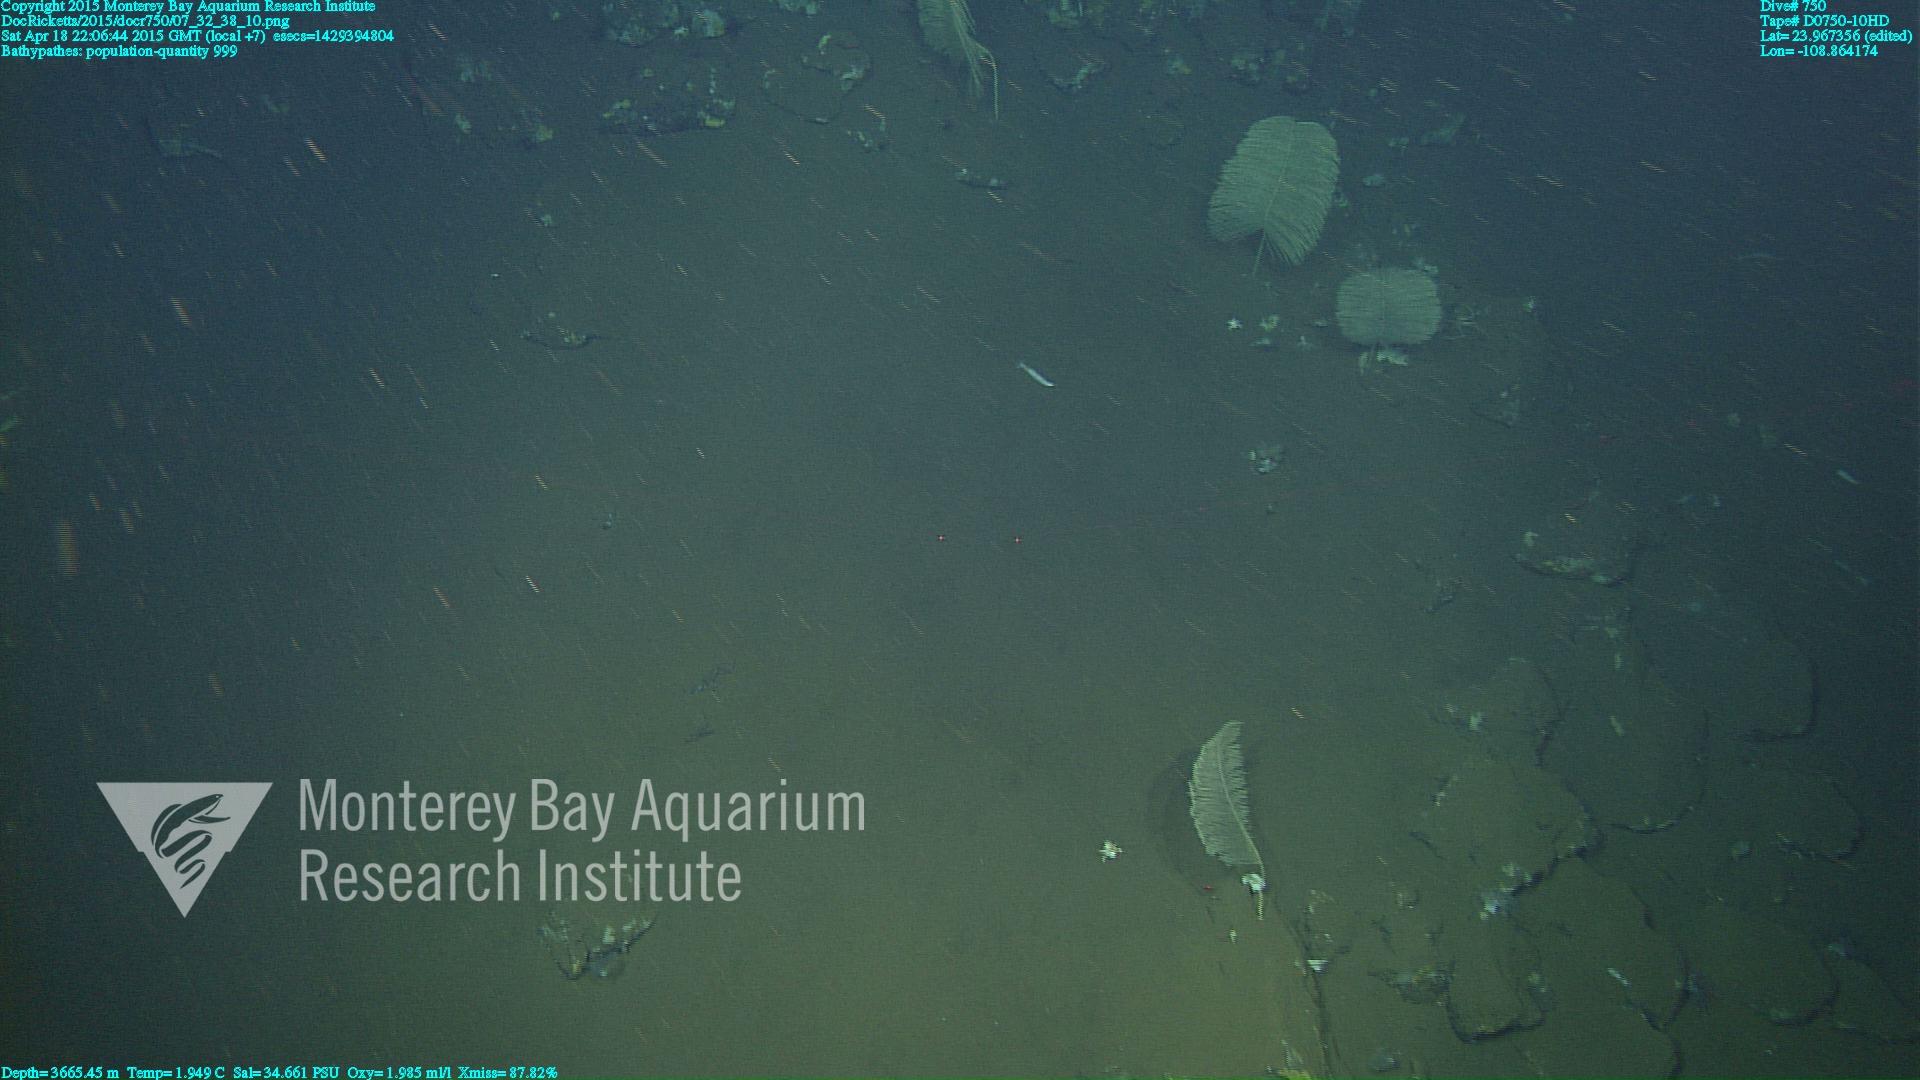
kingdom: Animalia
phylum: Cnidaria
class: Anthozoa
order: Antipatharia
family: Schizopathidae
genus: Bathypathes
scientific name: Bathypathes
